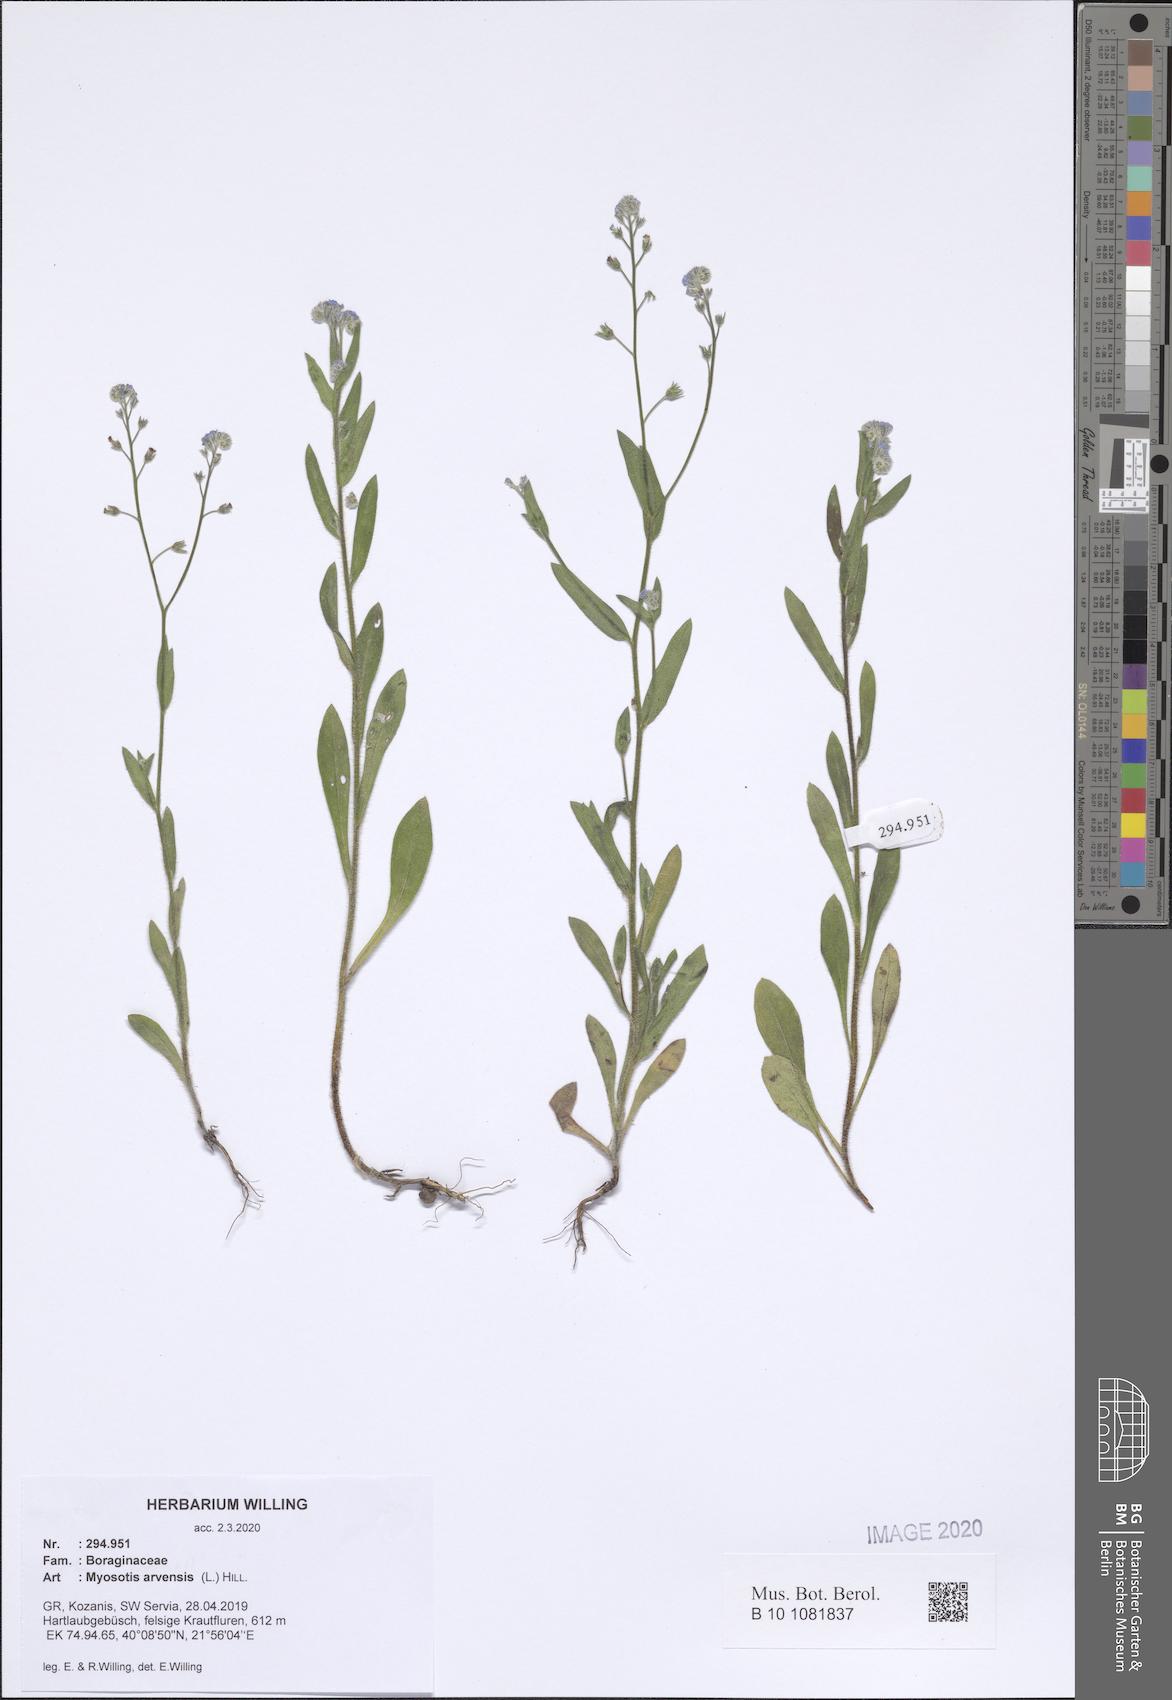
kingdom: Plantae
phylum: Tracheophyta
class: Magnoliopsida
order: Boraginales
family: Boraginaceae
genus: Myosotis
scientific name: Myosotis arvensis
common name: Field forget-me-not
